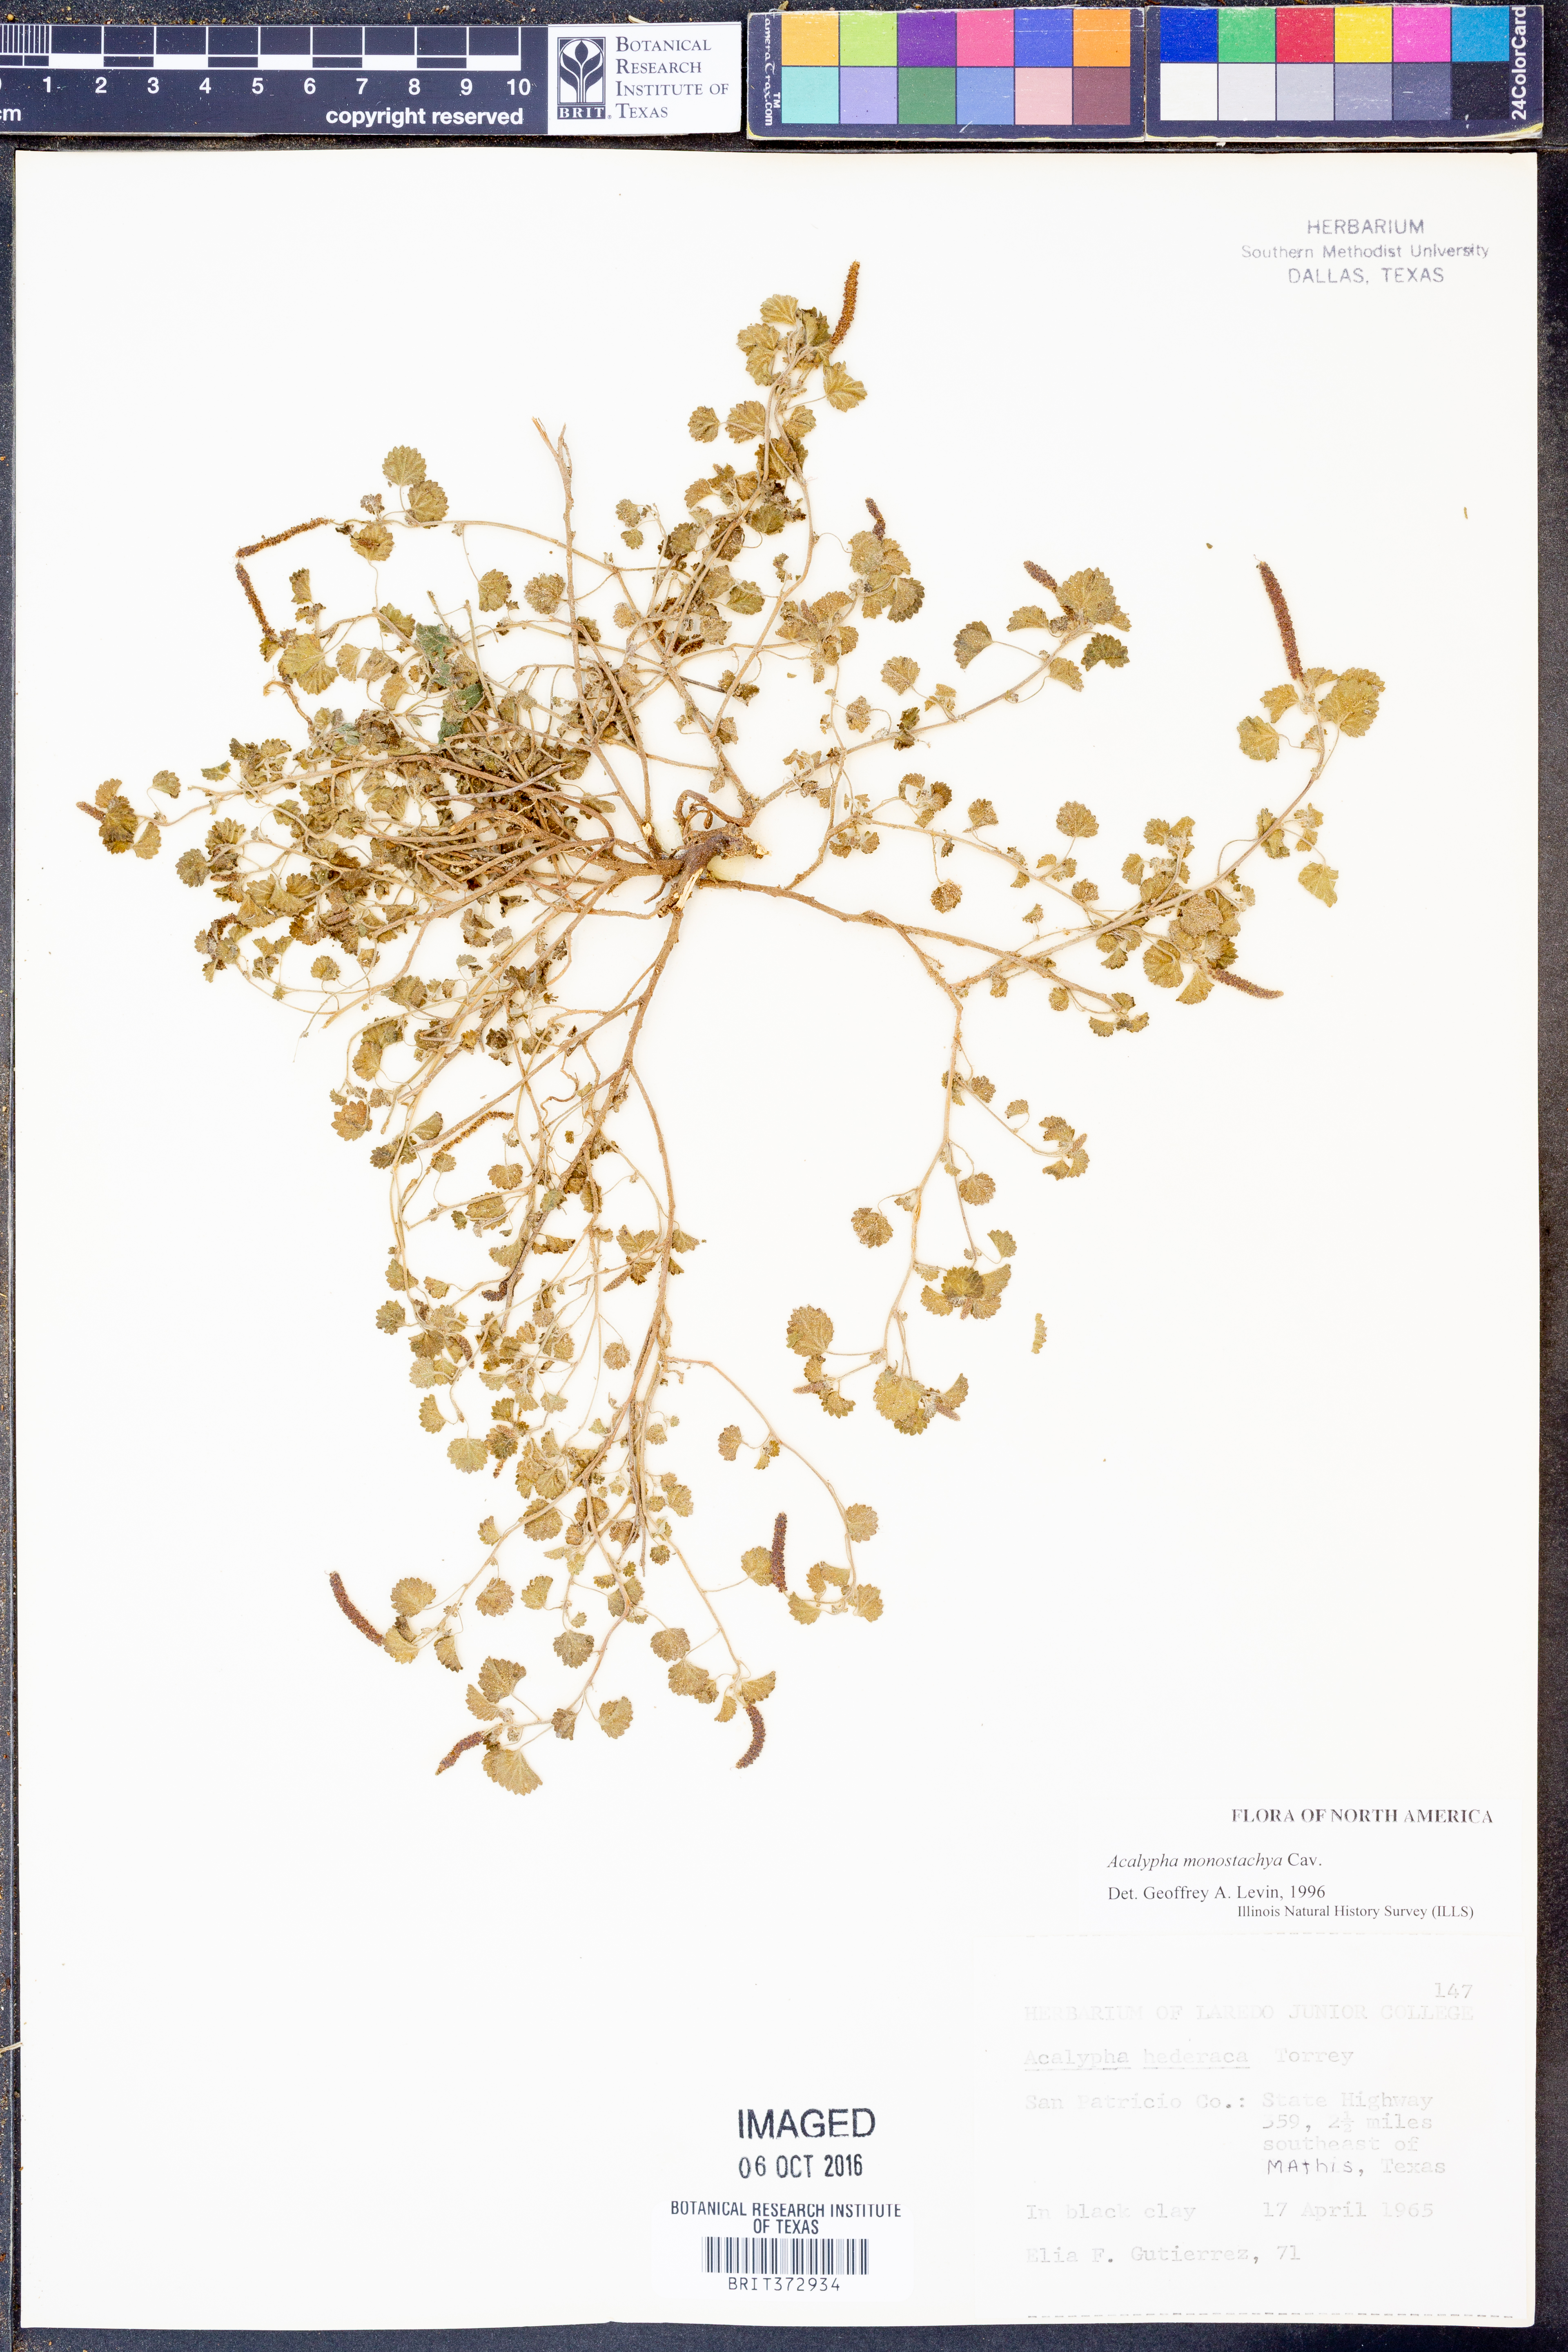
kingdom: Plantae
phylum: Tracheophyta
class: Magnoliopsida
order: Malpighiales
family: Euphorbiaceae
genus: Acalypha
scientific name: Acalypha monostachya
